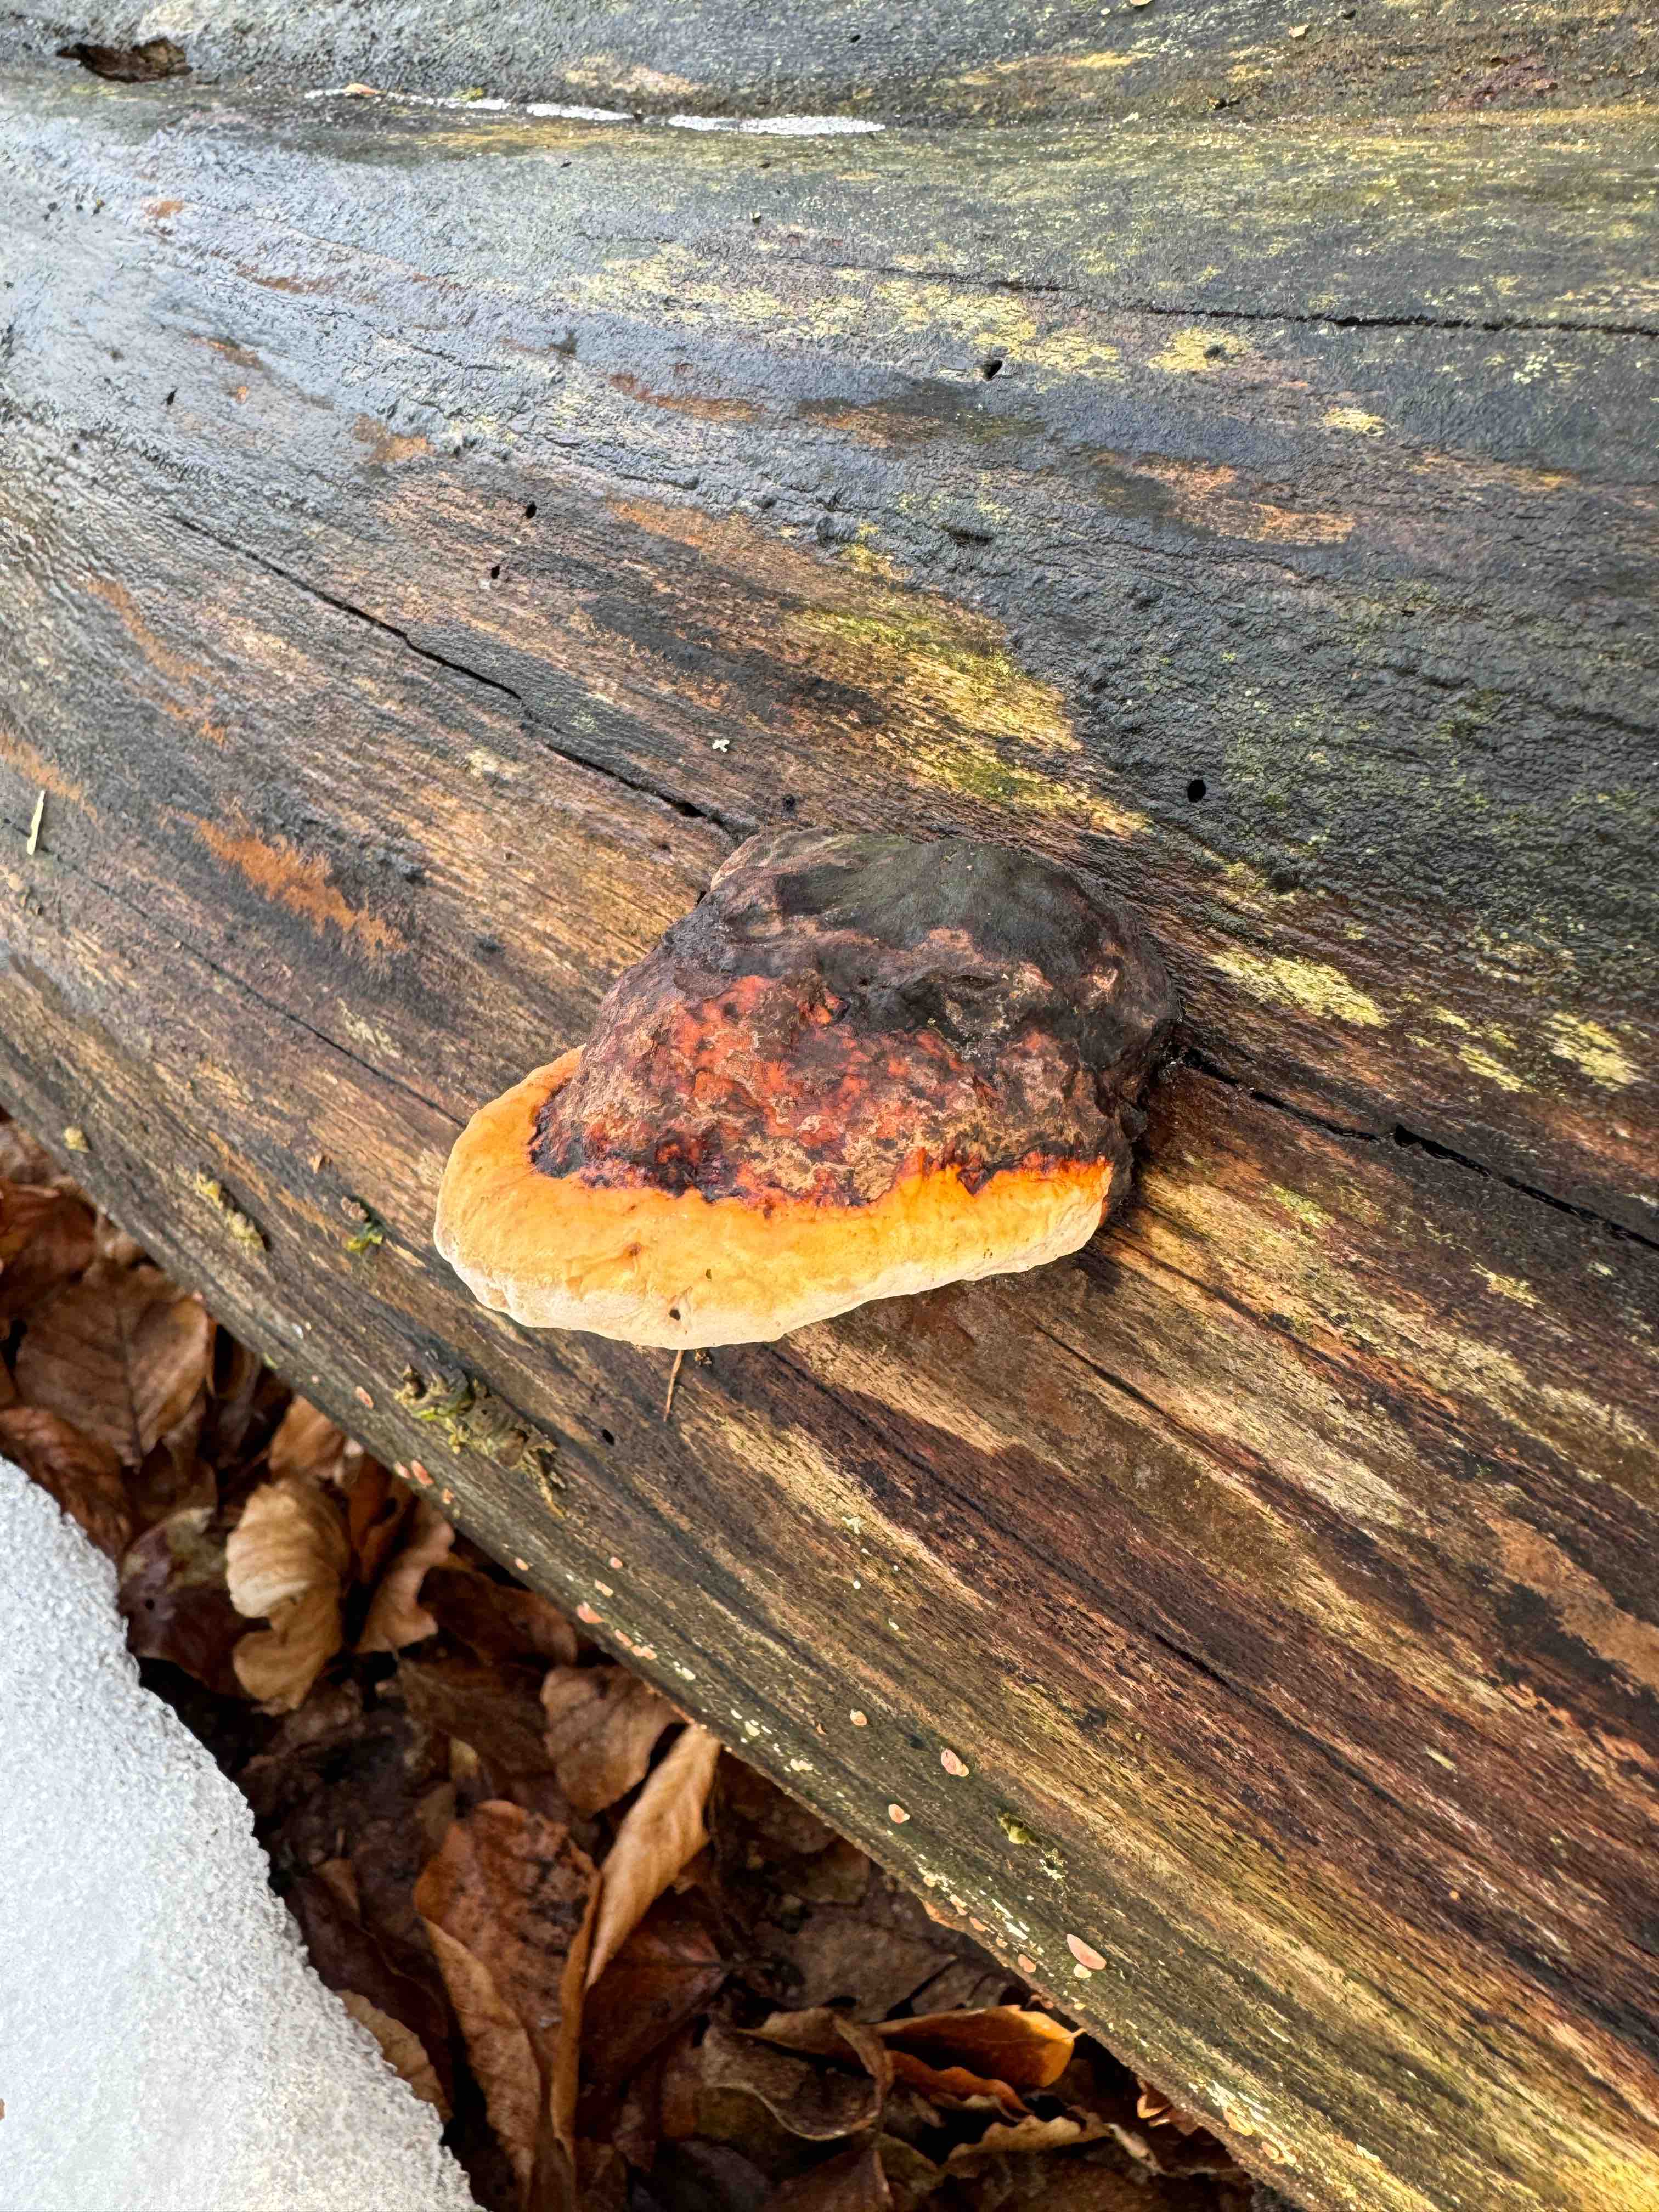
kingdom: Fungi
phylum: Basidiomycota
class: Agaricomycetes
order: Polyporales
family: Fomitopsidaceae
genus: Fomitopsis
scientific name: Fomitopsis pinicola
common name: randbæltet hovporesvamp
